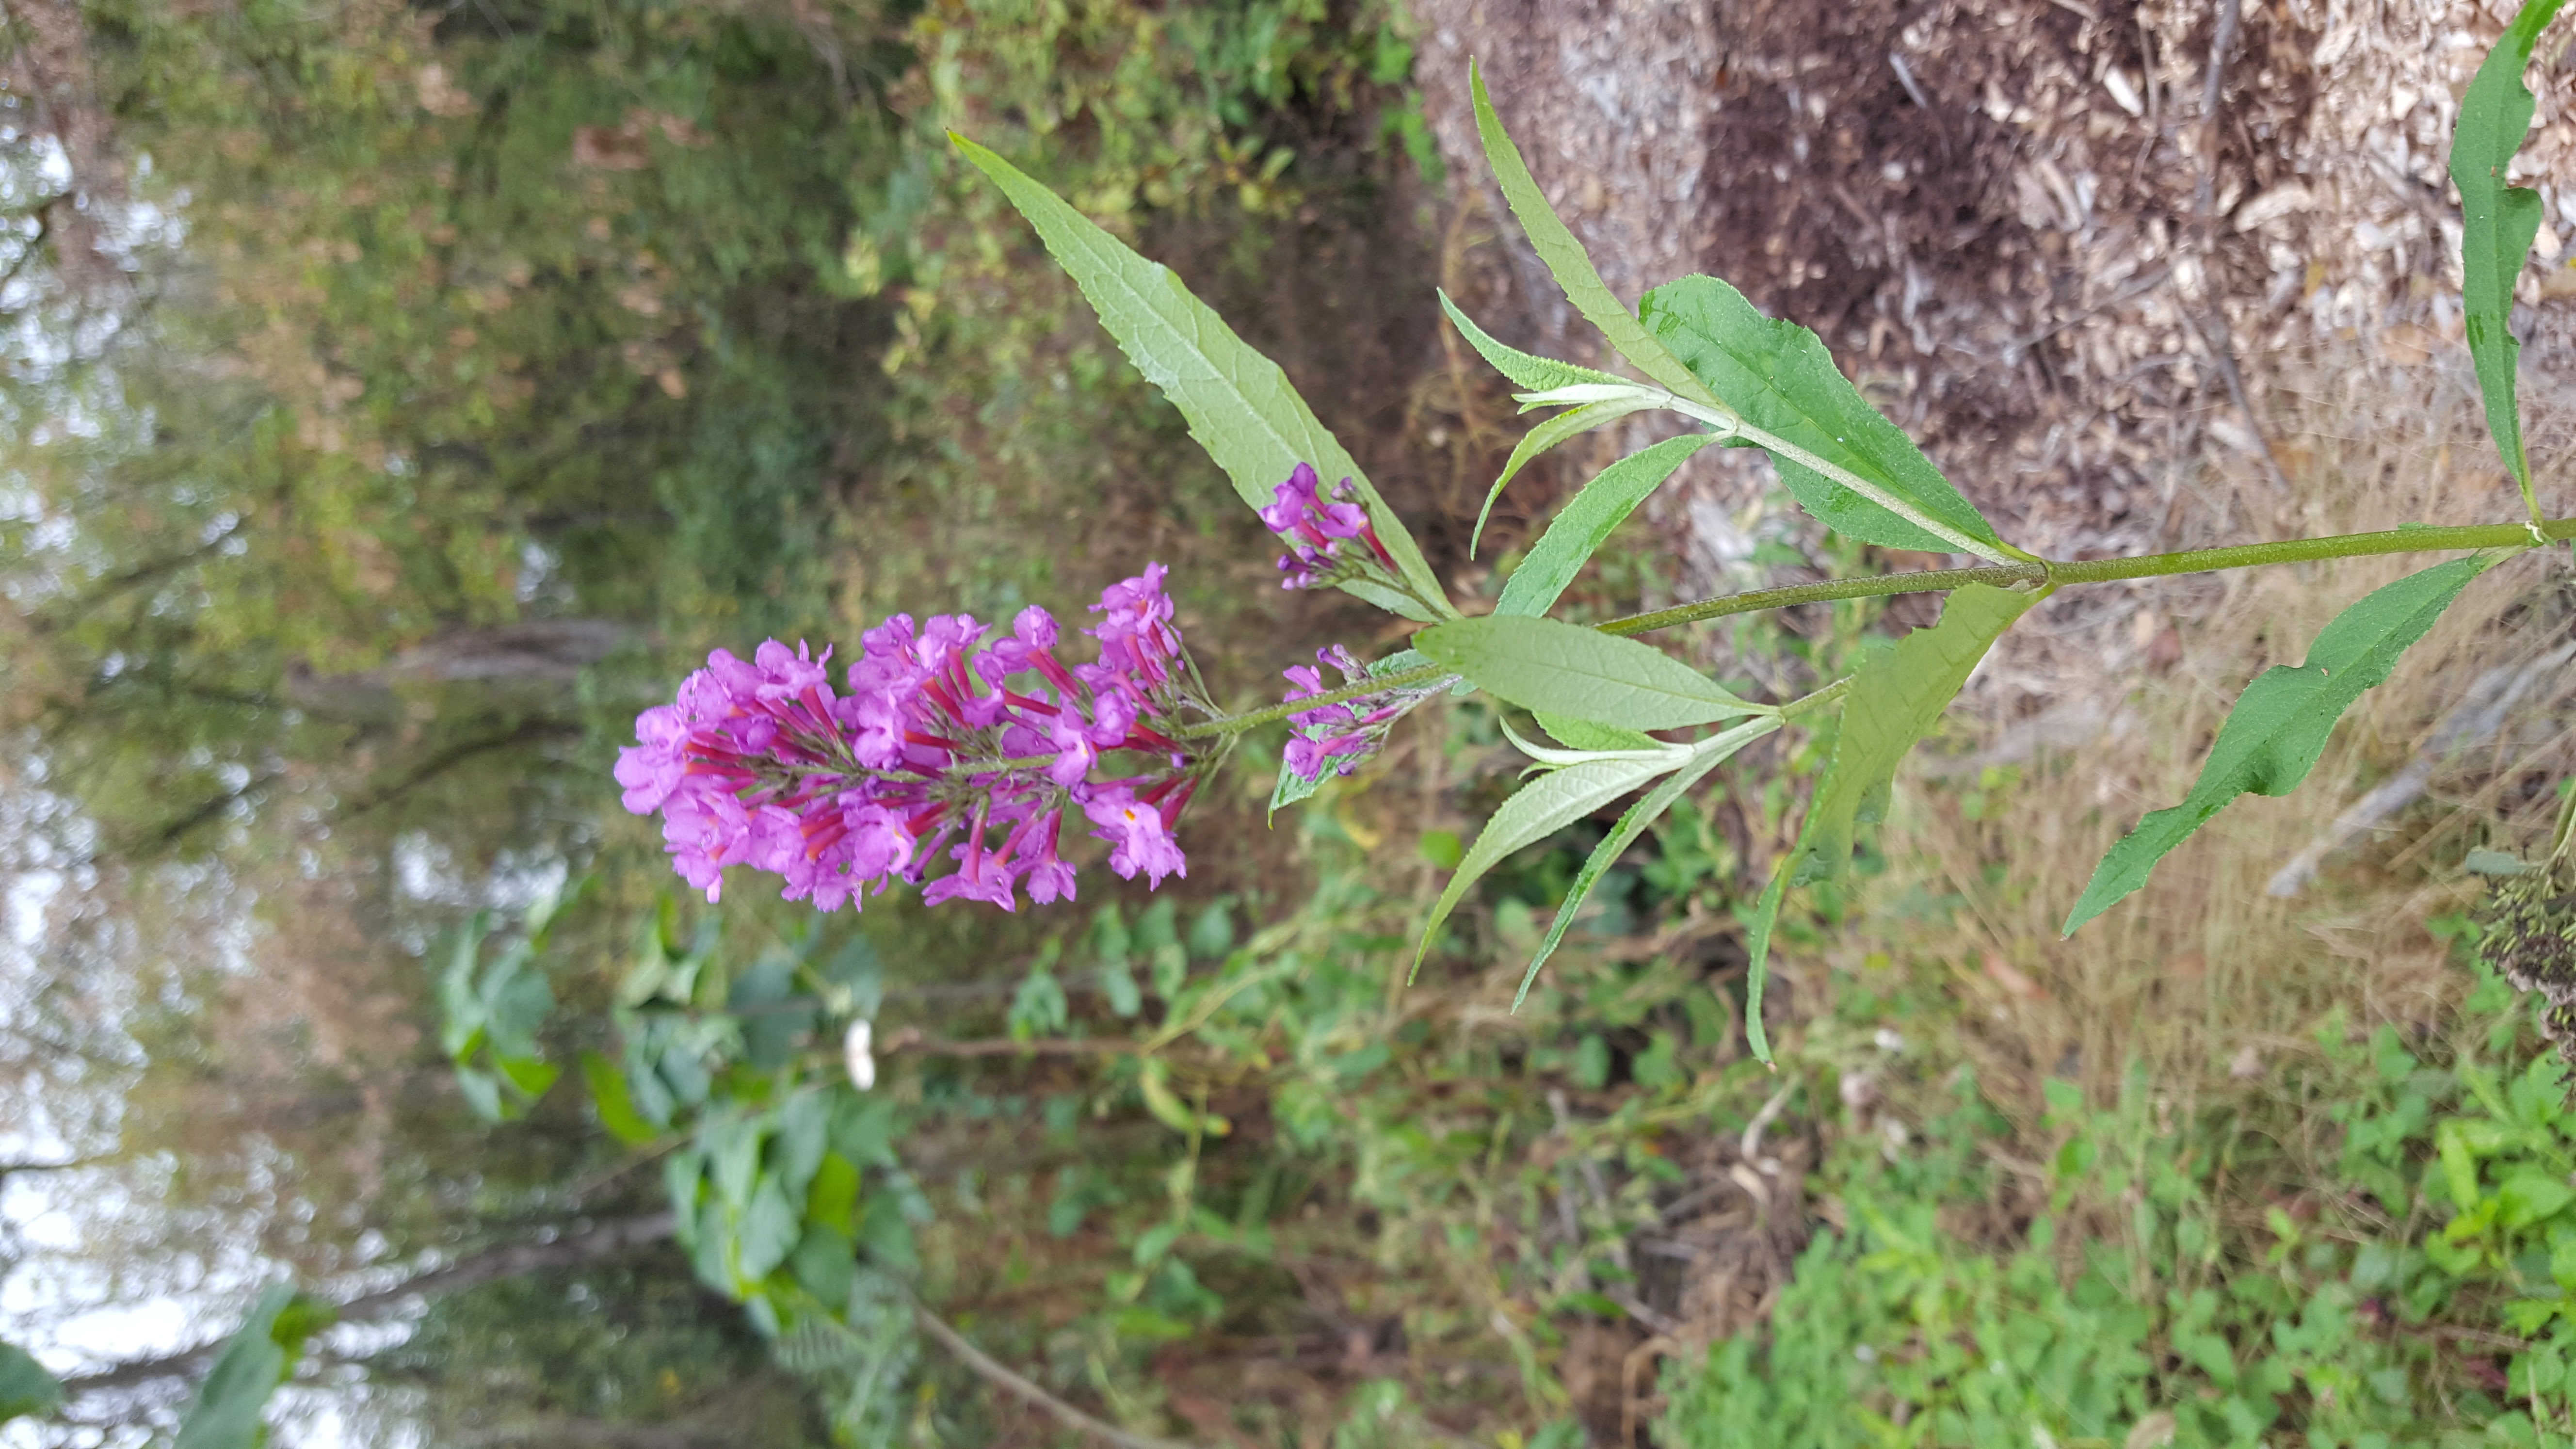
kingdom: Plantae
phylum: Tracheophyta
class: Magnoliopsida
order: Lamiales
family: Scrophulariaceae
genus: Buddleja
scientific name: Buddleja davidii
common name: Butterfly bush
